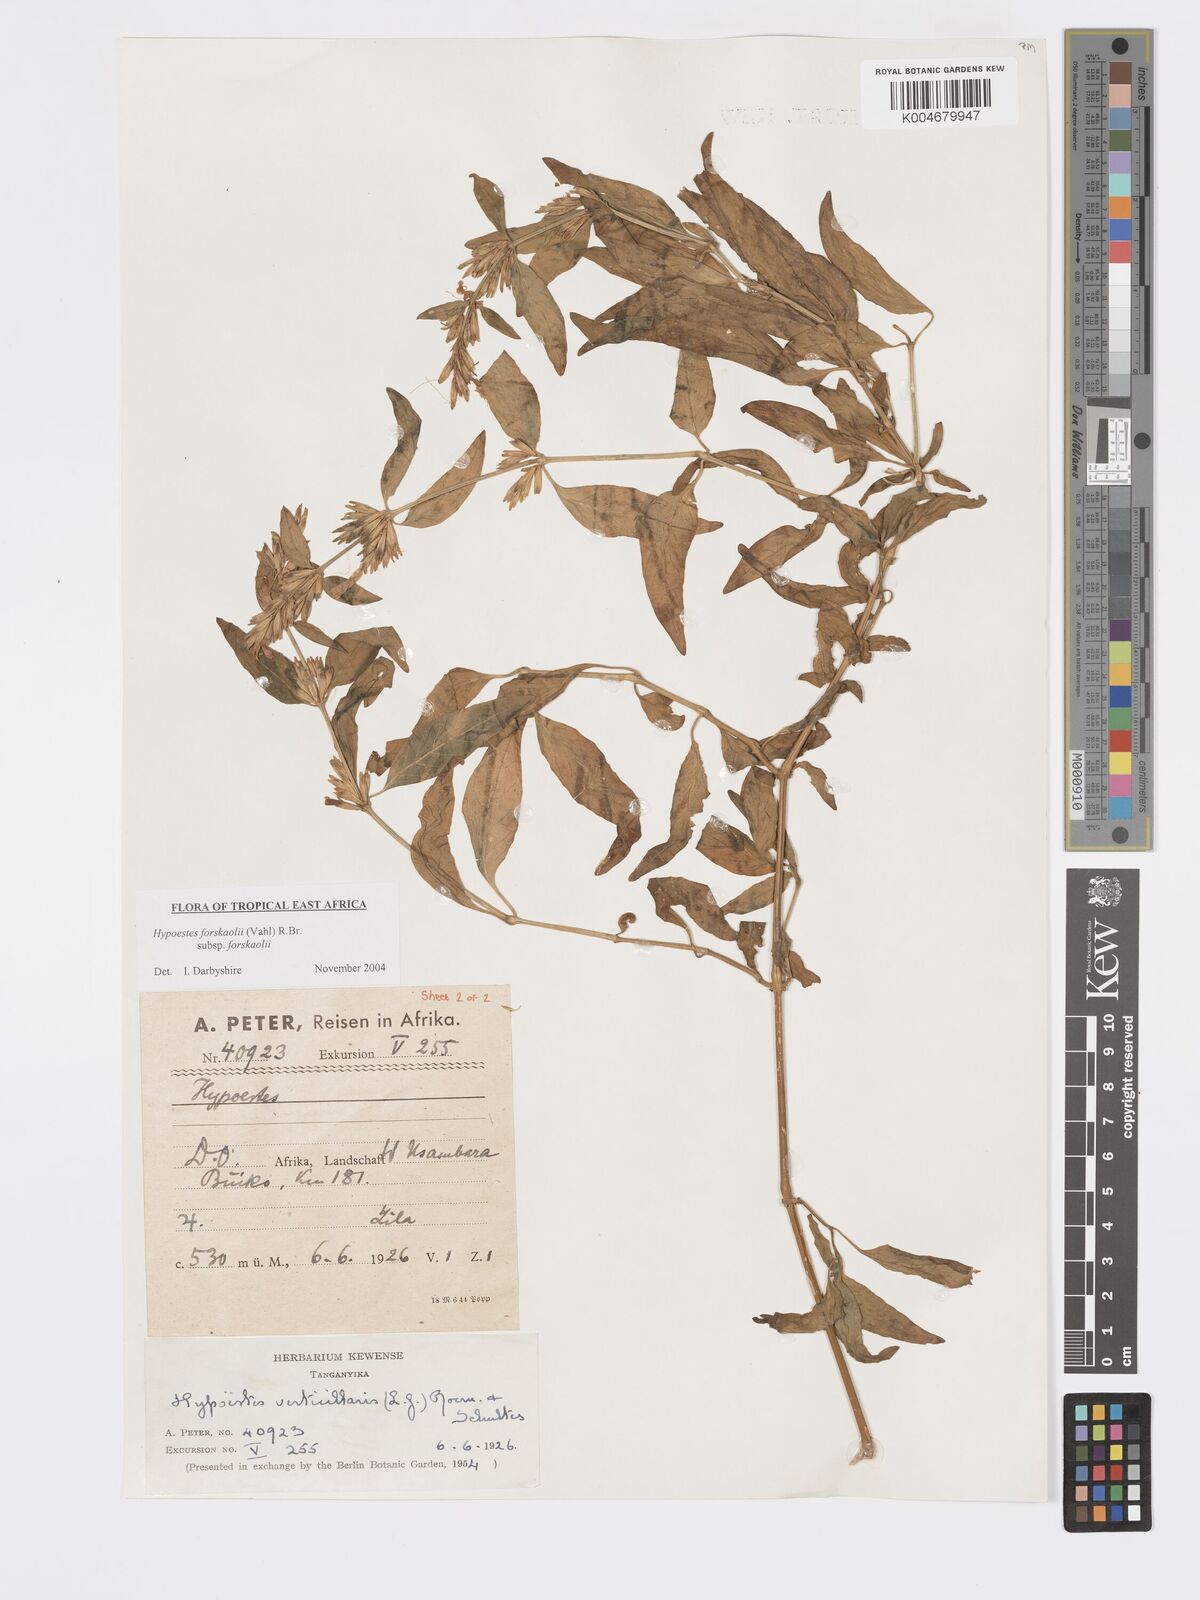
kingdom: Plantae
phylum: Tracheophyta
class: Magnoliopsida
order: Lamiales
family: Acanthaceae
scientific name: Acanthaceae
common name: Acanthaceae
